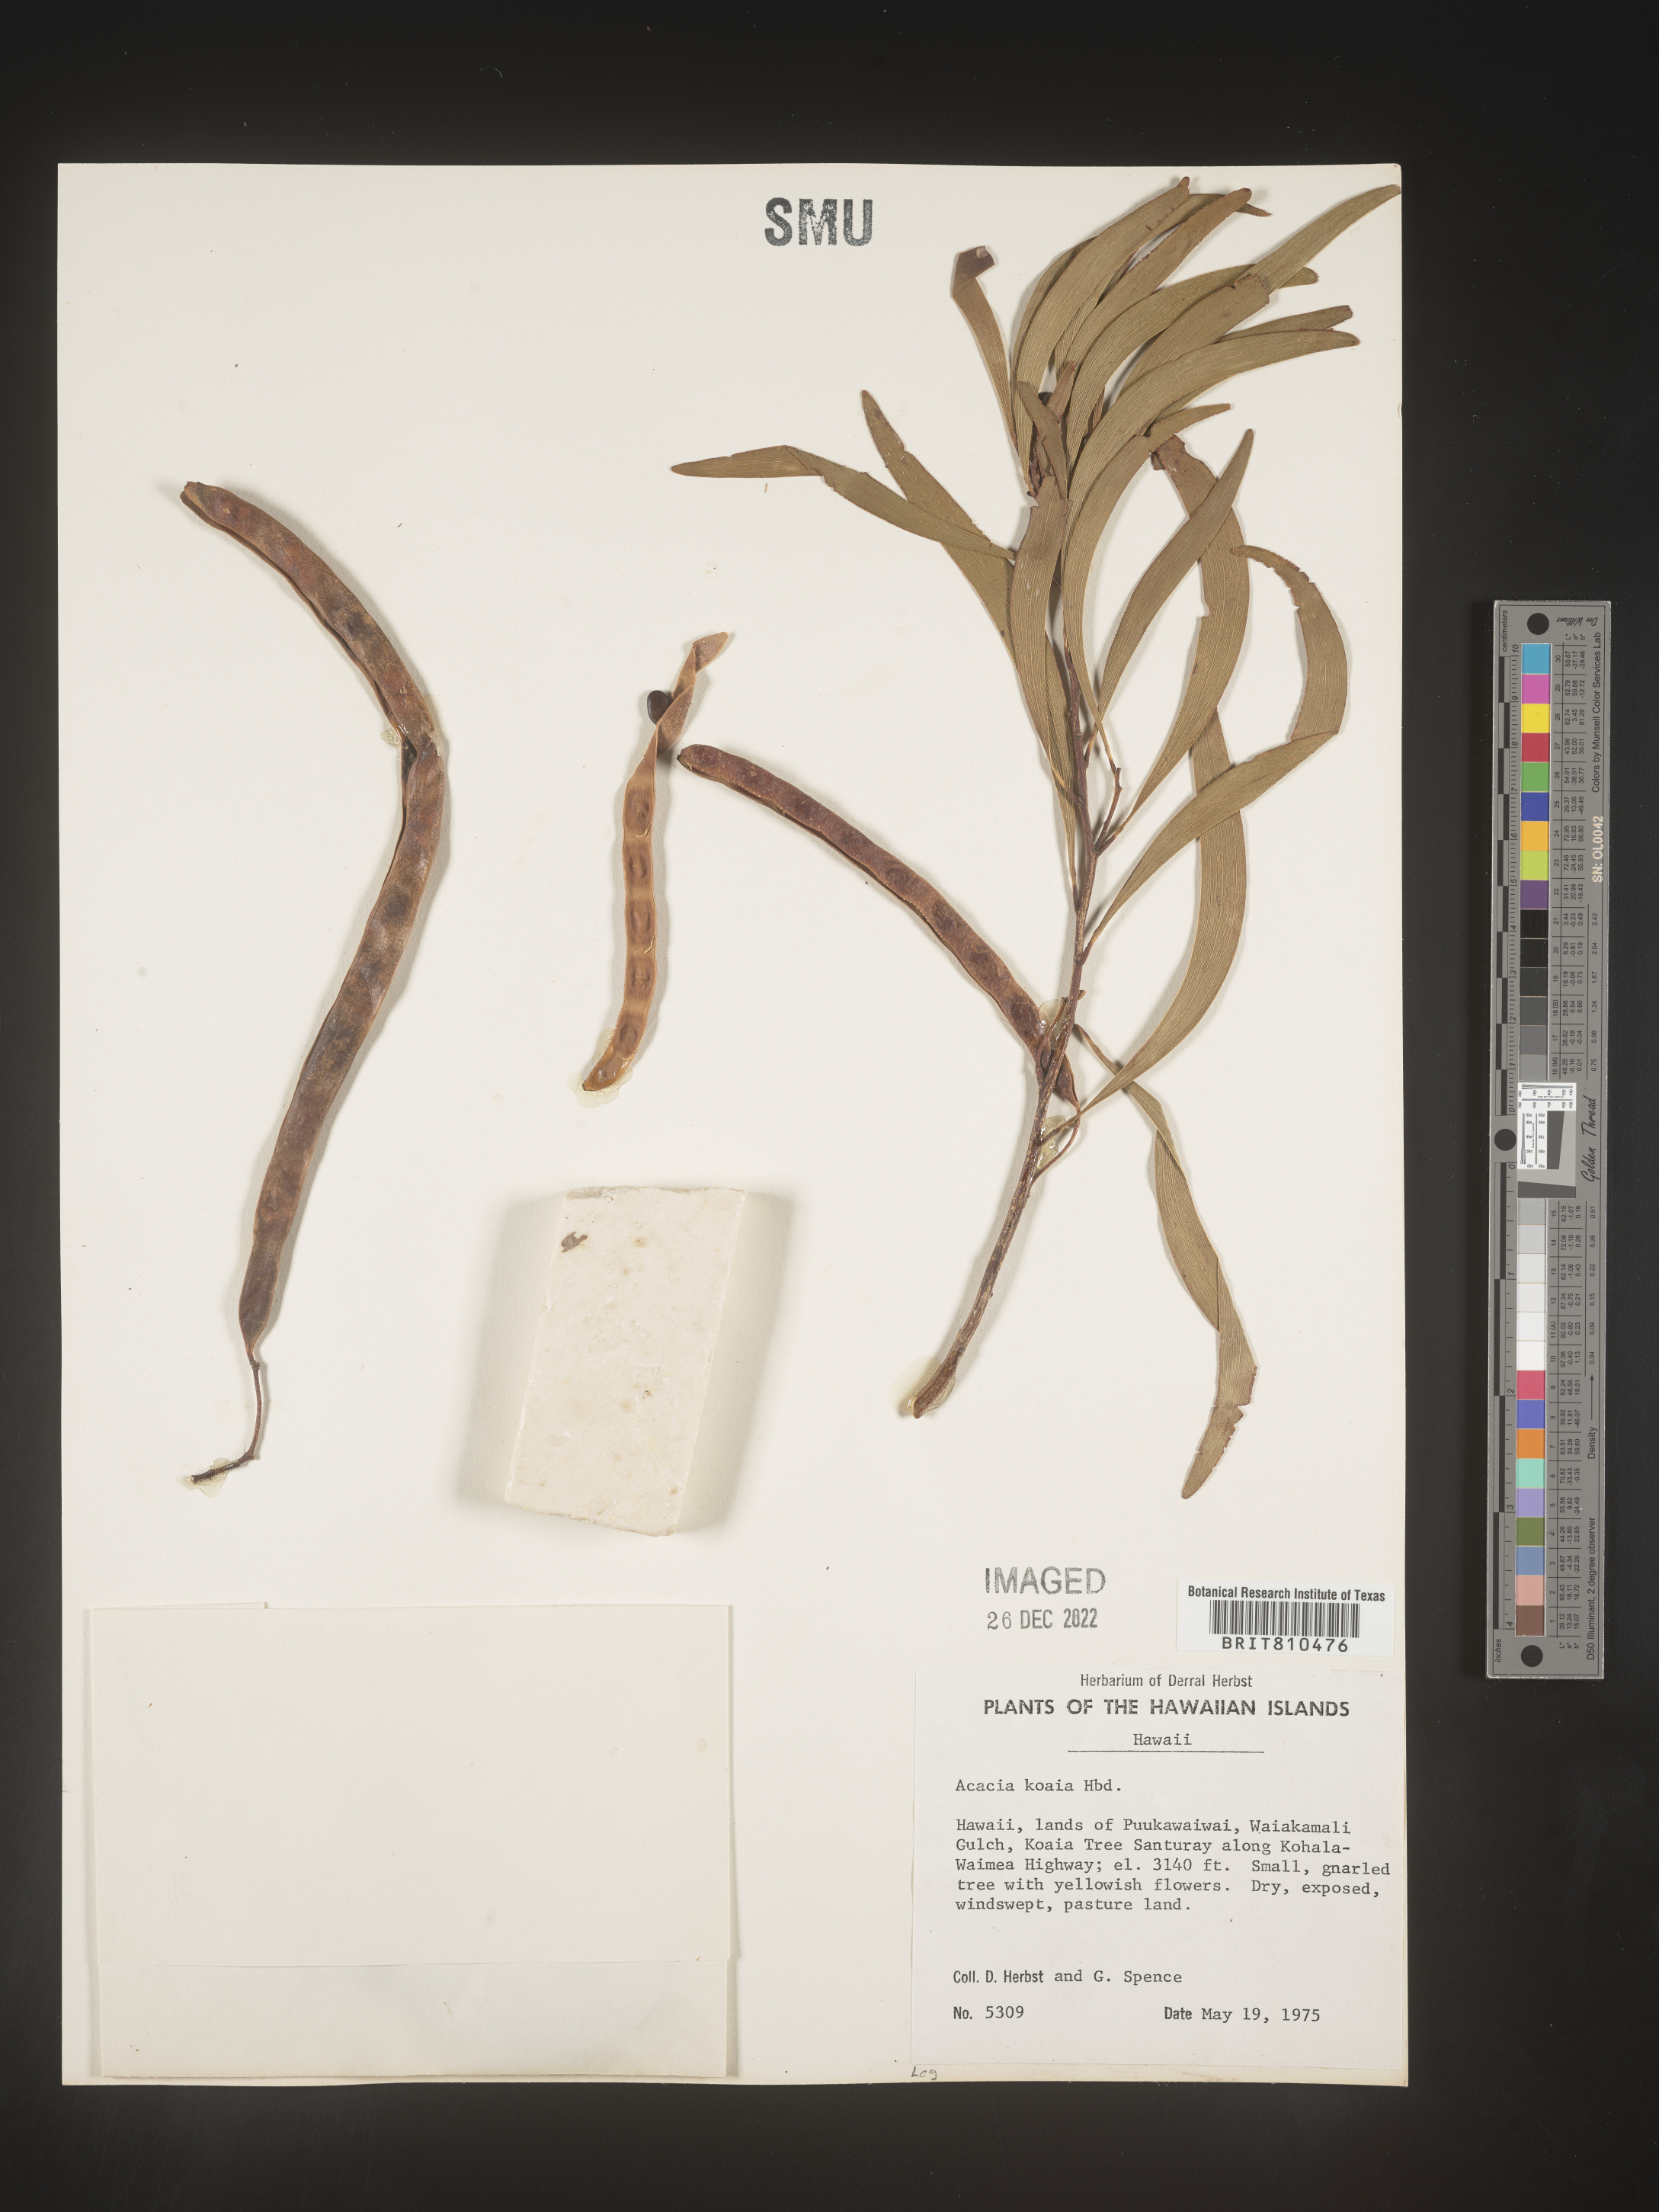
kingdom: Plantae
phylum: Tracheophyta
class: Magnoliopsida
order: Fabales
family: Fabaceae
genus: Acacia
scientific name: Acacia
